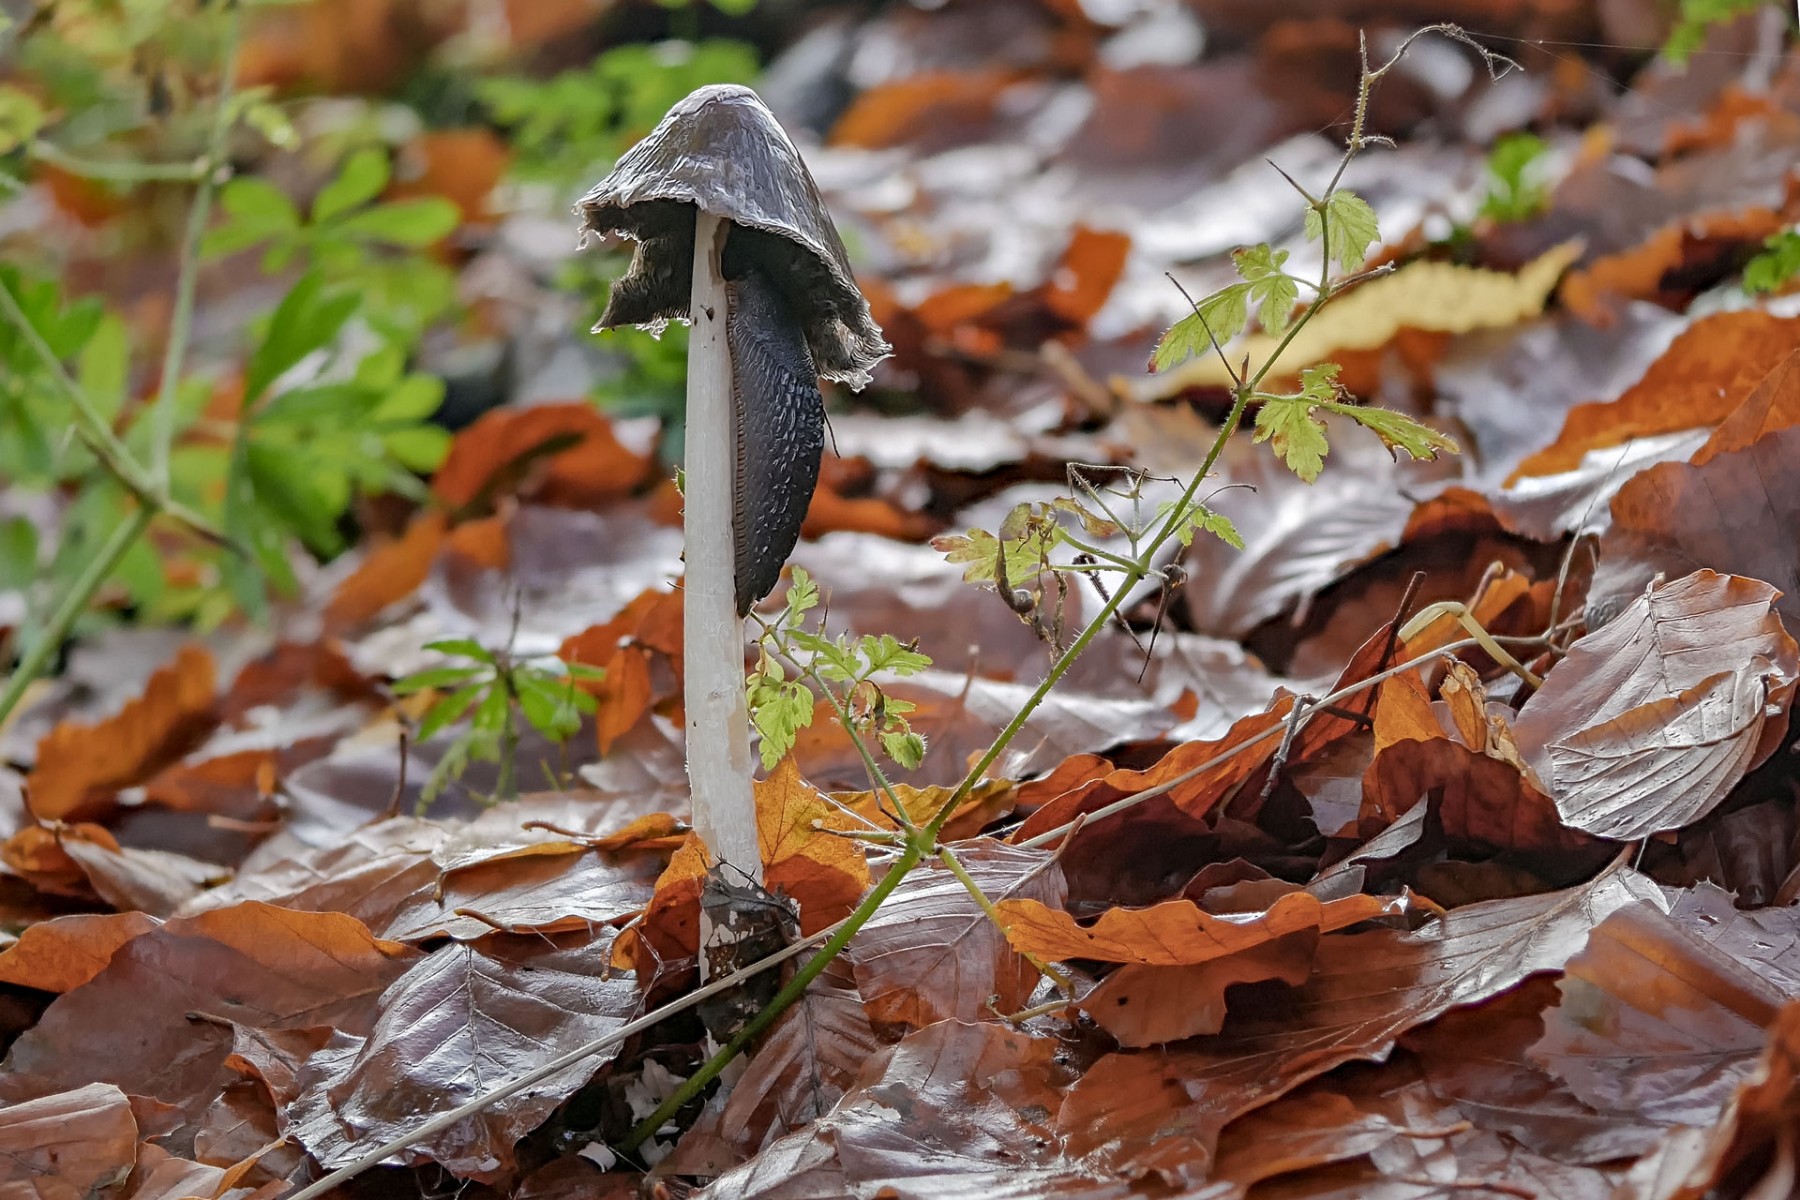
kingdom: Fungi
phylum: Basidiomycota
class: Agaricomycetes
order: Agaricales
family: Psathyrellaceae
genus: Coprinopsis
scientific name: Coprinopsis picacea
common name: skade-blækhat
